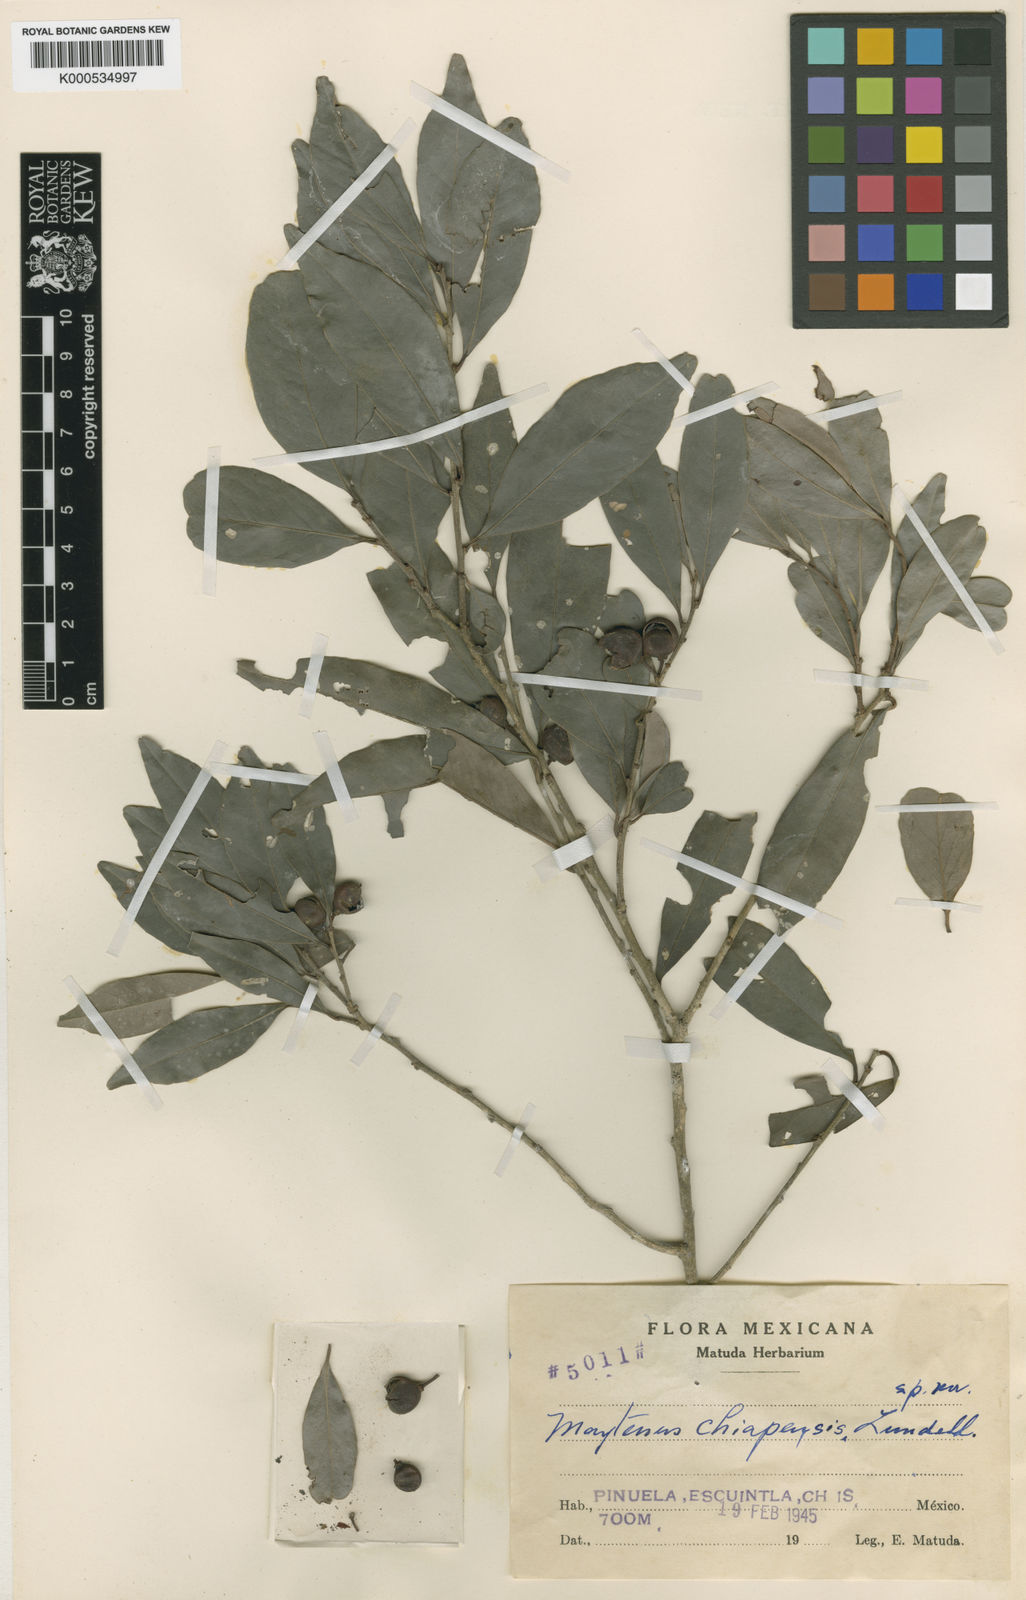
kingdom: Plantae
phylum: Tracheophyta
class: Magnoliopsida
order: Celastrales
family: Celastraceae
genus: Monteverdia
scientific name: Monteverdia chiapensis
